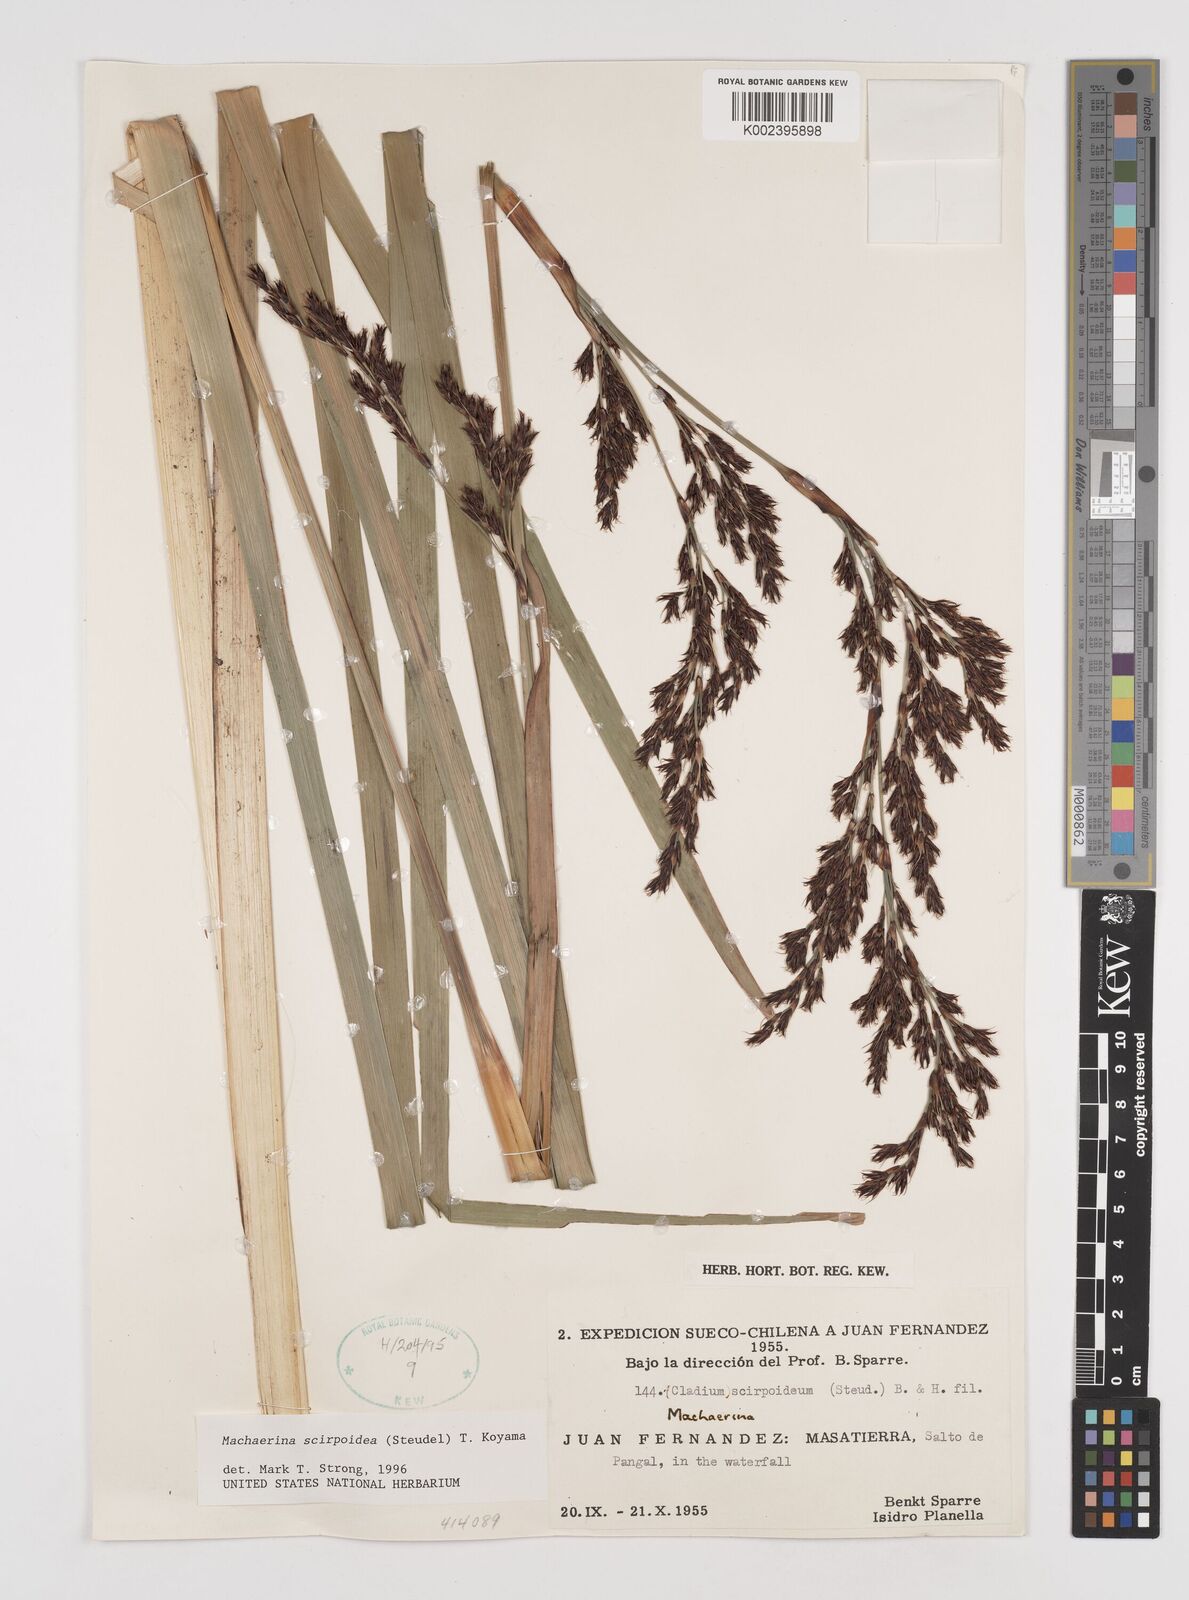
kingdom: Plantae
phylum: Tracheophyta
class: Liliopsida
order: Poales
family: Cyperaceae
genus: Machaerina
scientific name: Machaerina scirpoidea
